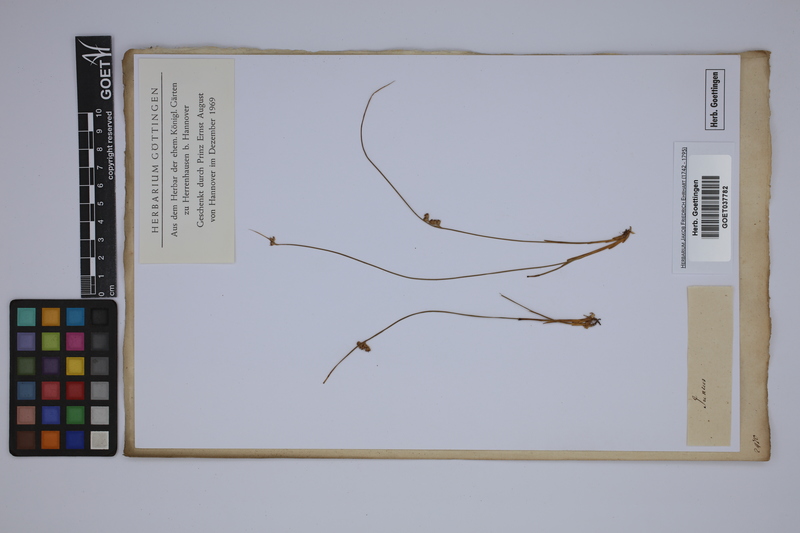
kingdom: Plantae
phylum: Tracheophyta
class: Liliopsida
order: Poales
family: Juncaceae
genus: Juncus
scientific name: Juncus filiformis
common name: Thread rush
